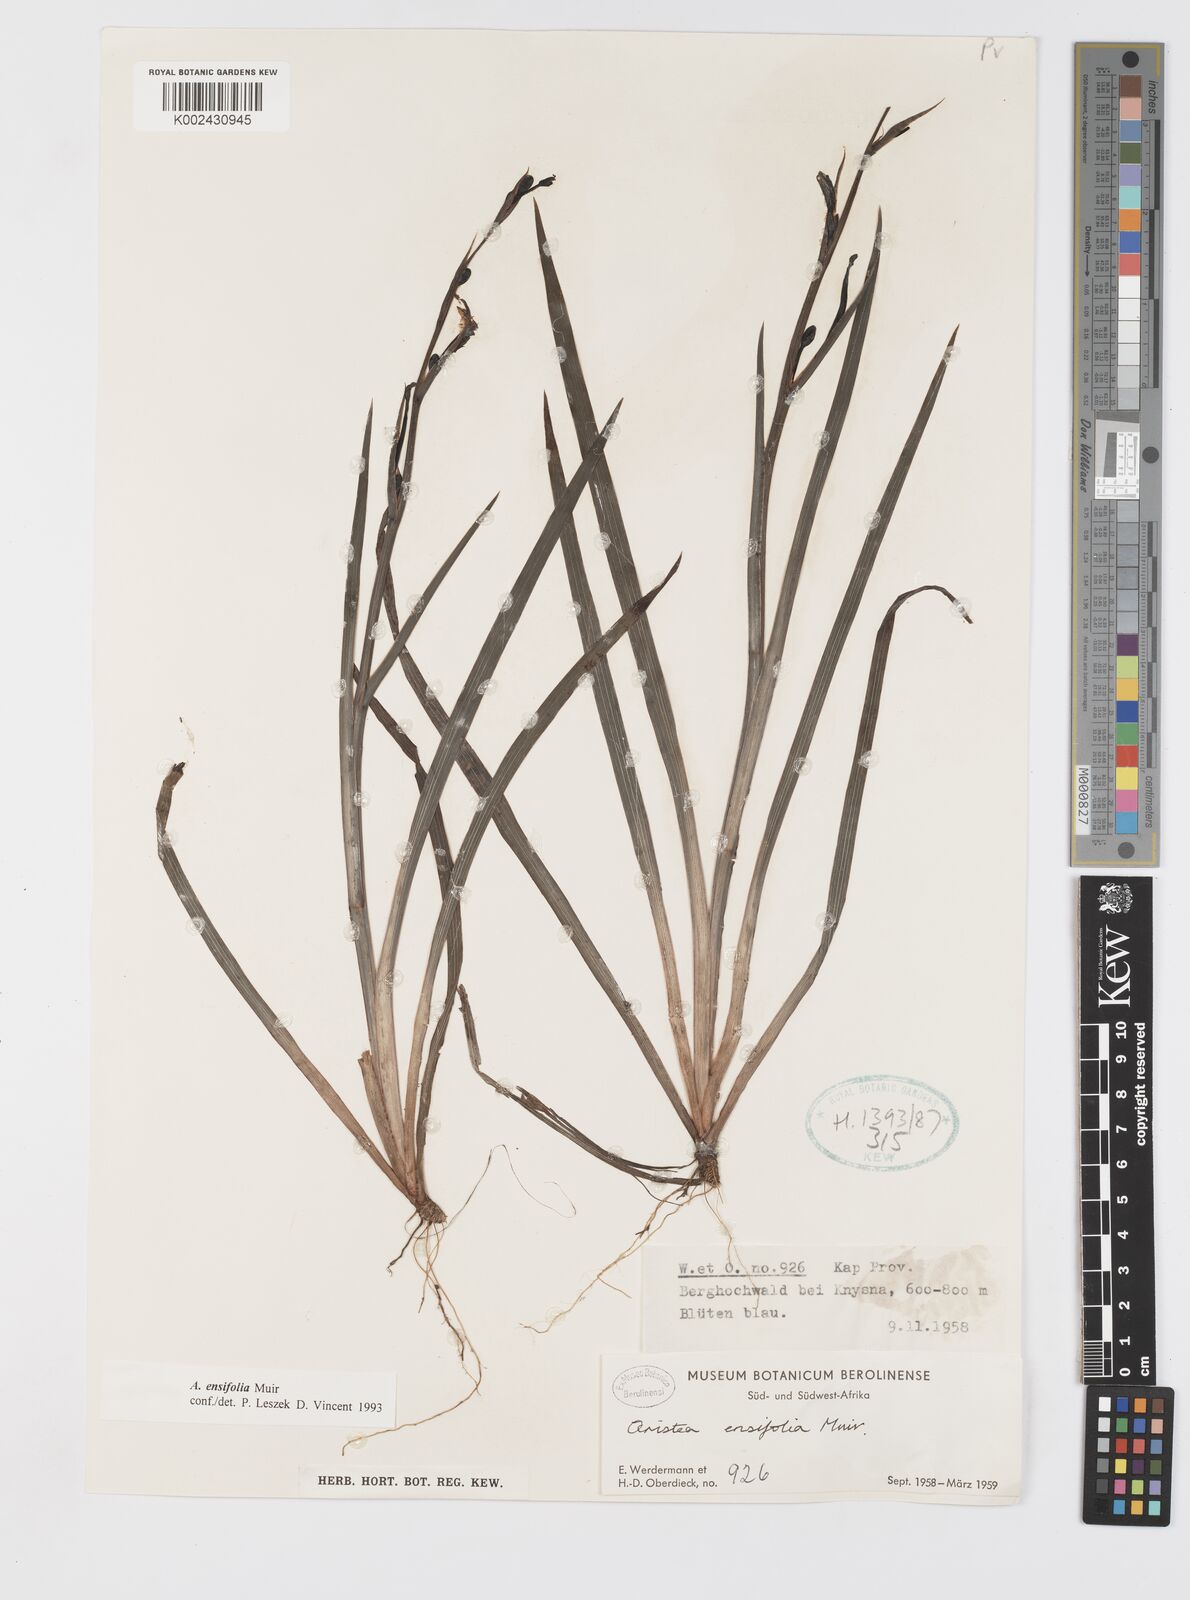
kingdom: Plantae
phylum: Tracheophyta
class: Liliopsida
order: Asparagales
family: Iridaceae
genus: Aristea
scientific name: Aristea ensifolia
